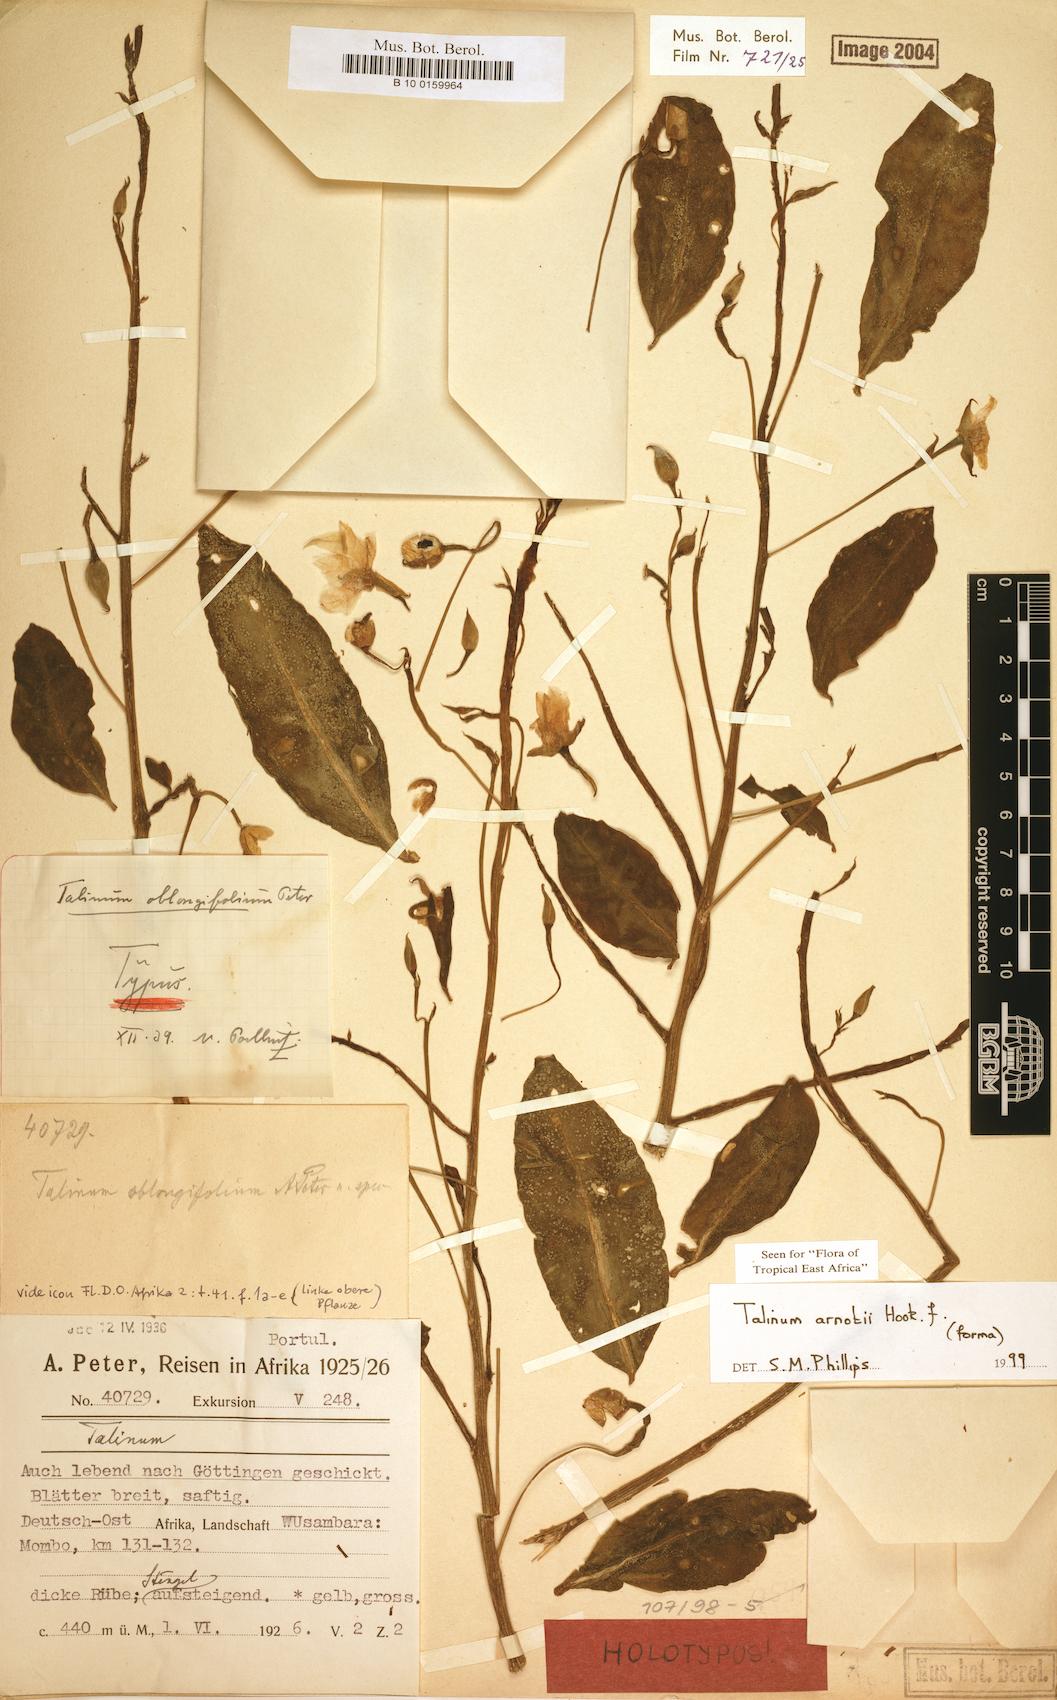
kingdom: Plantae
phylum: Tracheophyta
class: Magnoliopsida
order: Caryophyllales
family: Talinaceae
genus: Talinum
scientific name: Talinum arnotii
